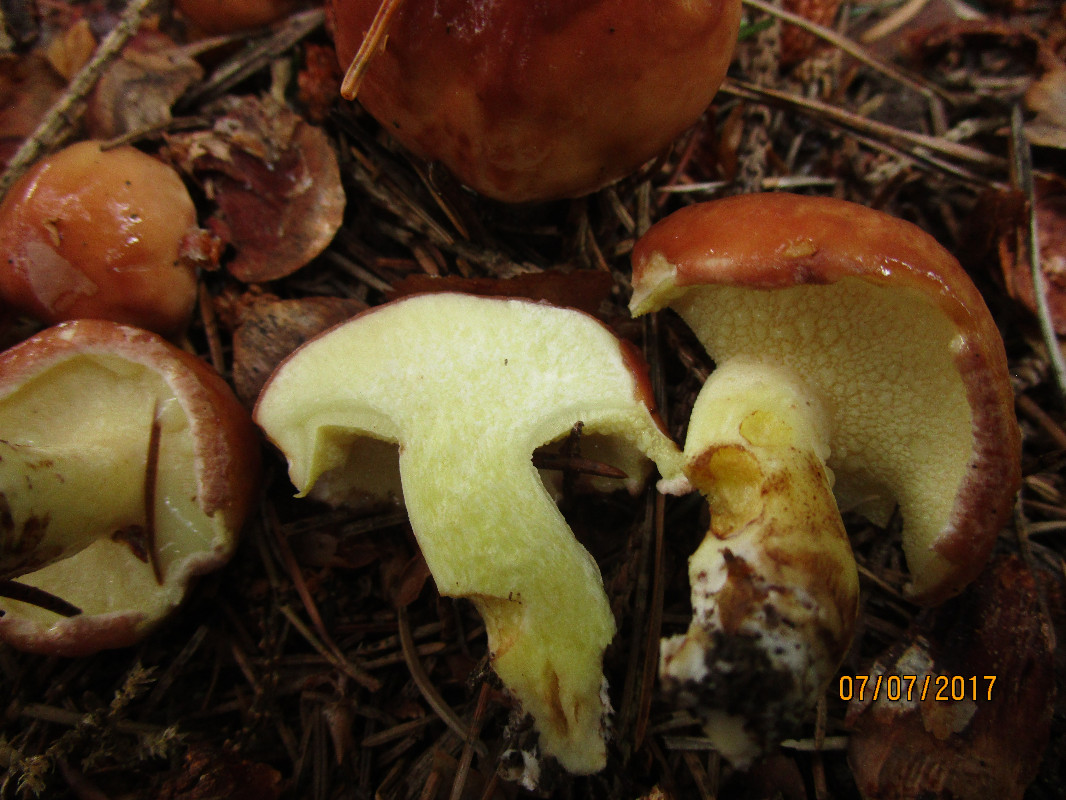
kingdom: Fungi
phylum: Basidiomycota
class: Agaricomycetes
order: Boletales
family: Suillaceae
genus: Suillus
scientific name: Suillus granulatus
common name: kornet slimrørhat
